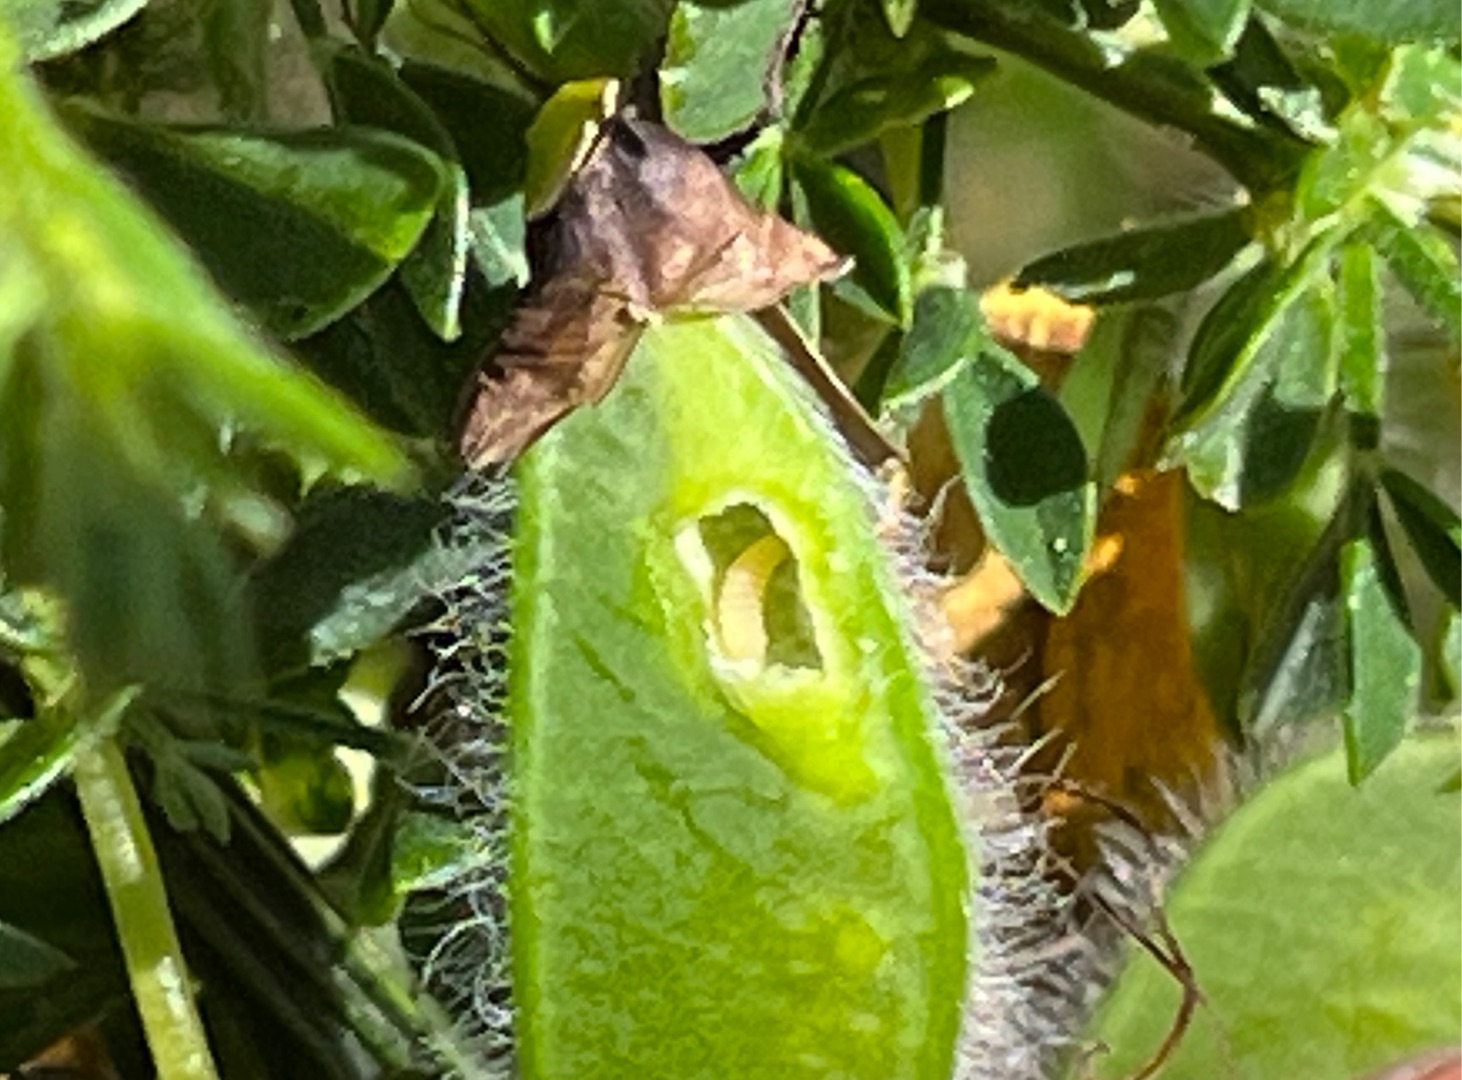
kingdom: Animalia
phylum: Arthropoda
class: Insecta
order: Diptera
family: Cecidomyiidae
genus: Asphondylia
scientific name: Asphondylia sarothamni
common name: Gyvelmycelgalmyg
